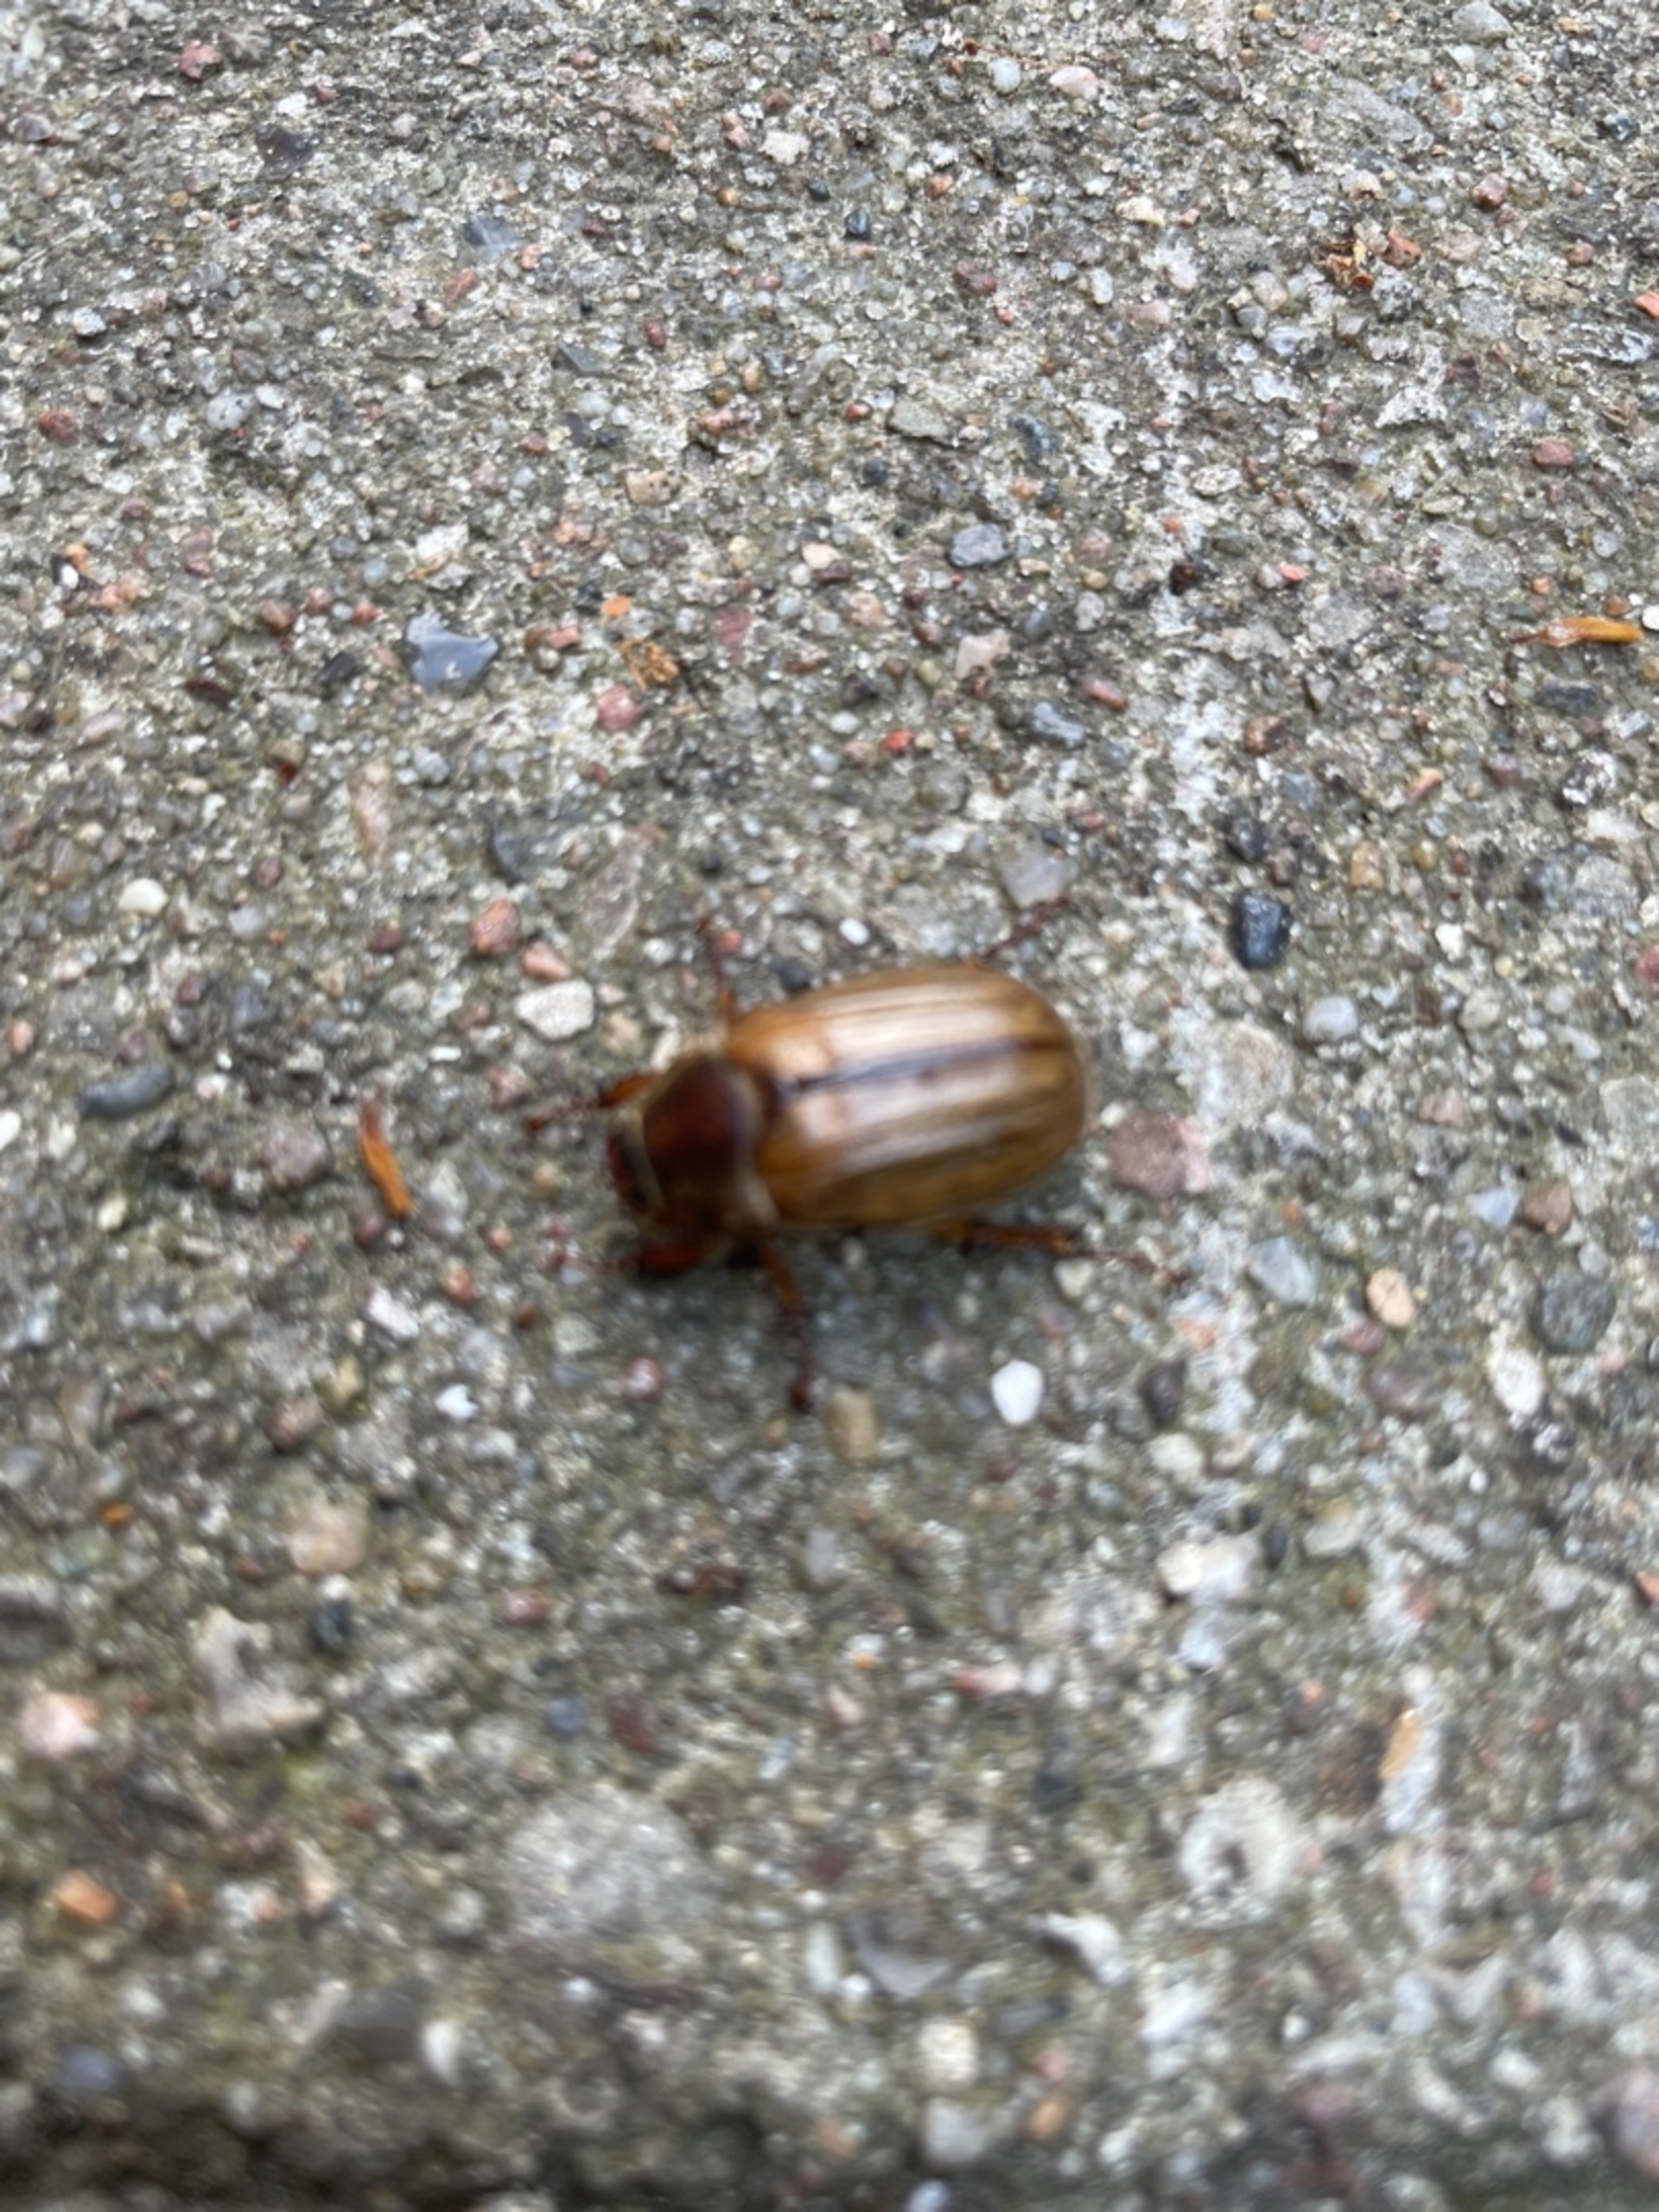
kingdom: Animalia
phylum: Arthropoda
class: Insecta
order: Coleoptera
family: Scarabaeidae
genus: Amphimallon
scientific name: Amphimallon solstitiale
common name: Sankthansoldenborre
